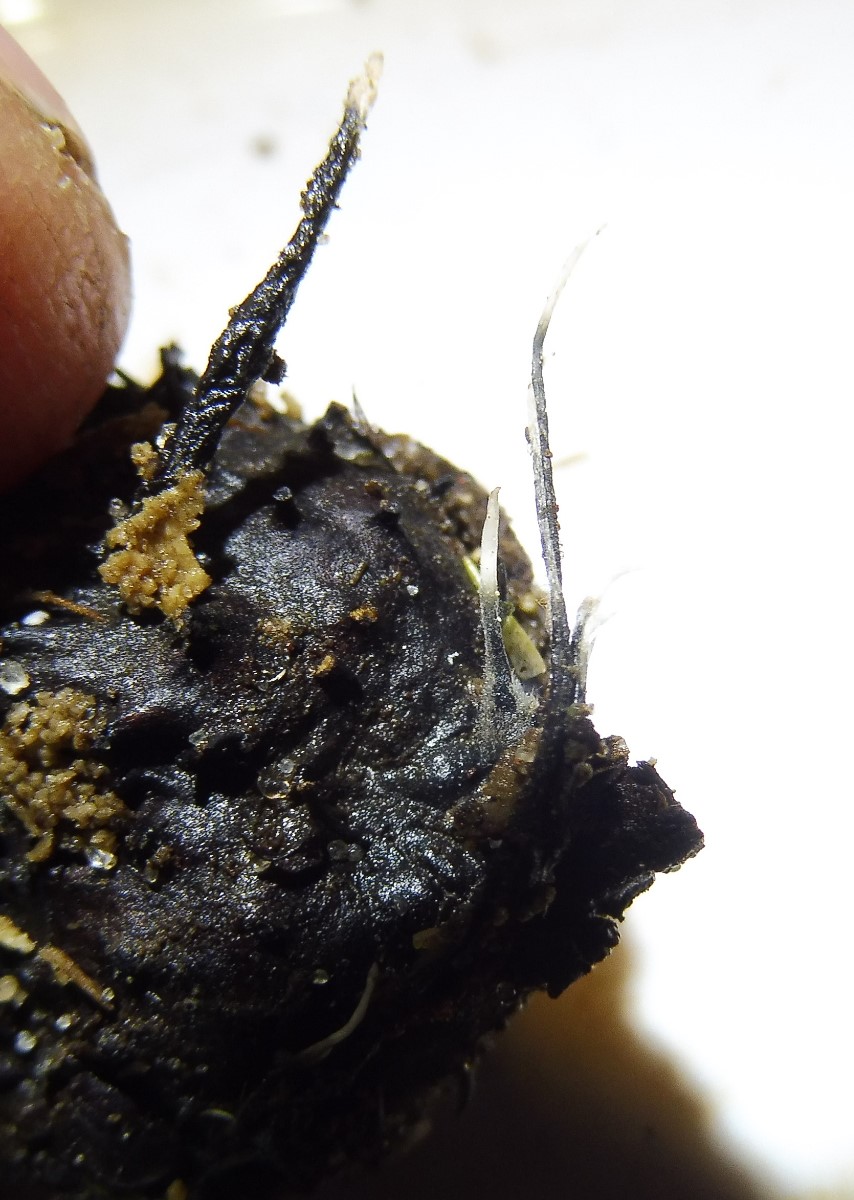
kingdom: Fungi
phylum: Ascomycota
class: Sordariomycetes
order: Xylariales
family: Xylariaceae
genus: Xylaria
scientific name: Xylaria carpophila
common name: bogskål-stødsvamp
